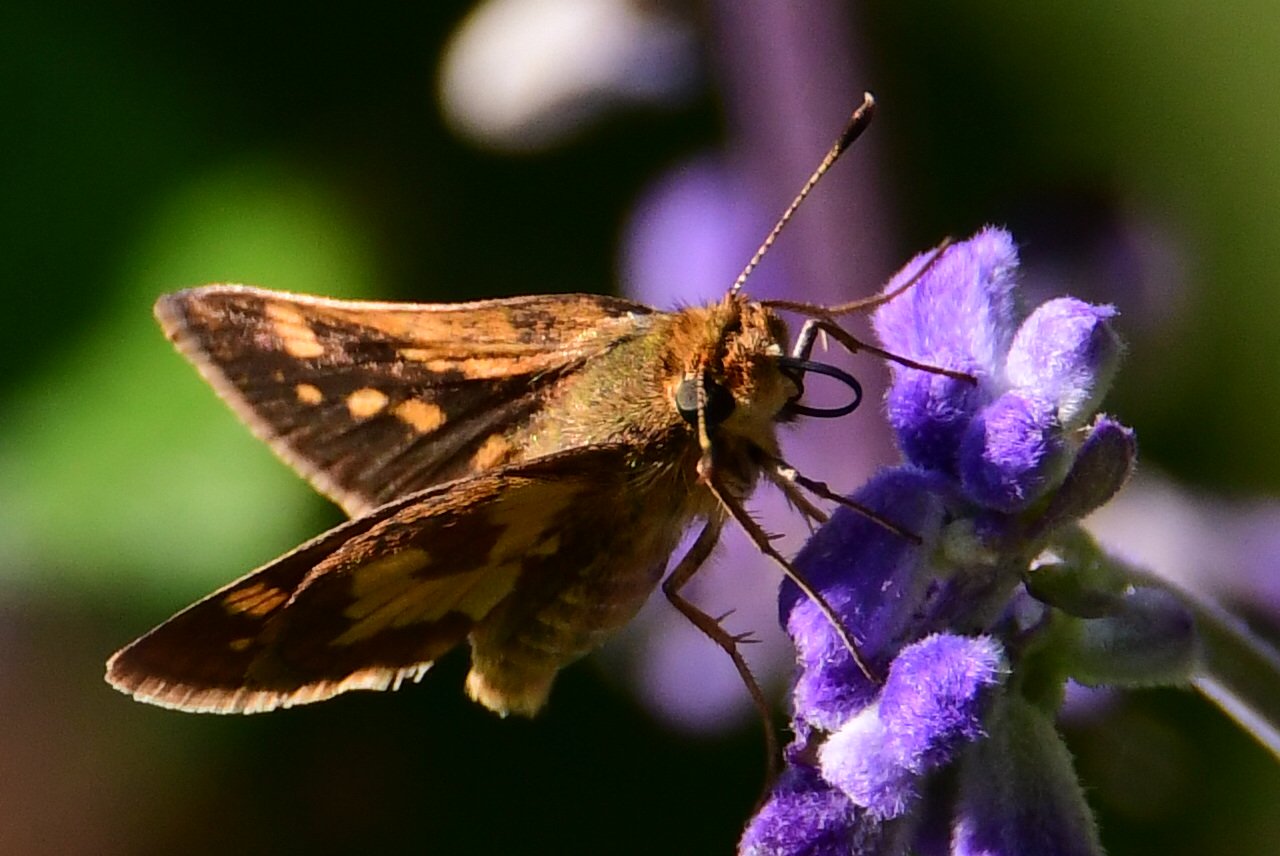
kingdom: Animalia
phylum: Arthropoda
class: Insecta
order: Lepidoptera
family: Hesperiidae
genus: Polites
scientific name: Polites coras
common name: Peck's Skipper
